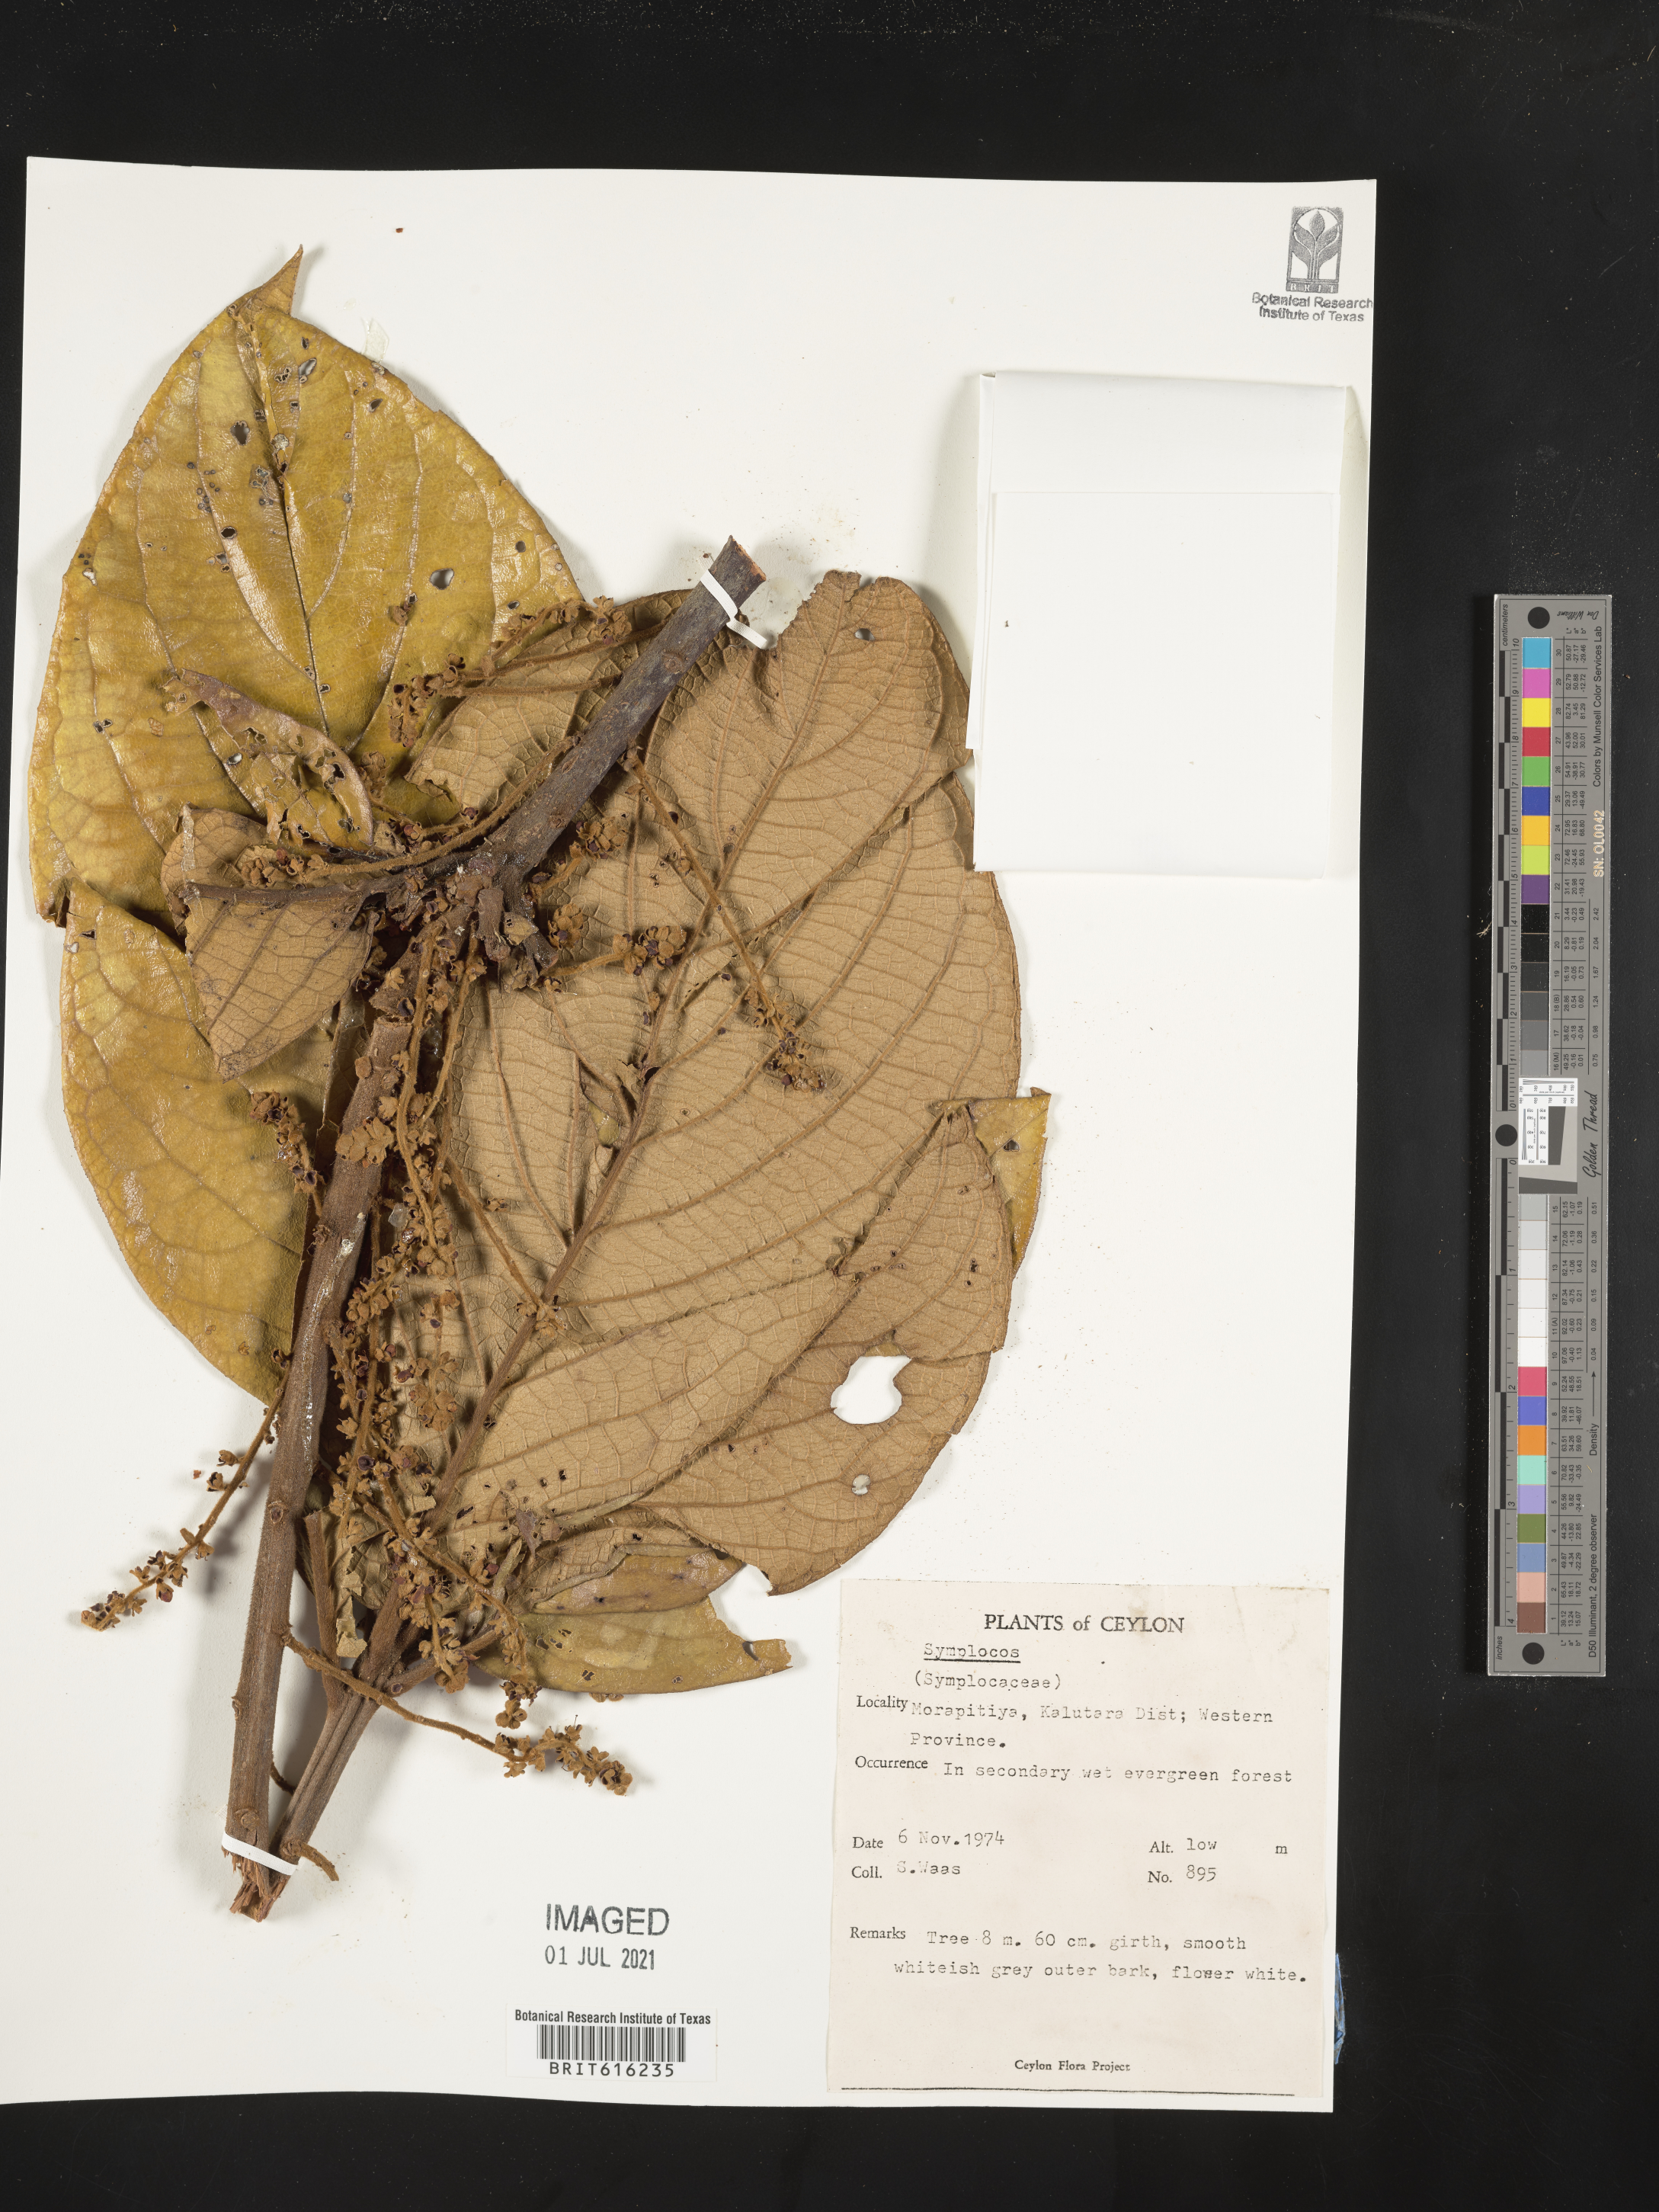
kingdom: Plantae
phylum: Tracheophyta
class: Magnoliopsida
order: Ericales
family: Symplocaceae
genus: Symplocos
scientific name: Symplocos
